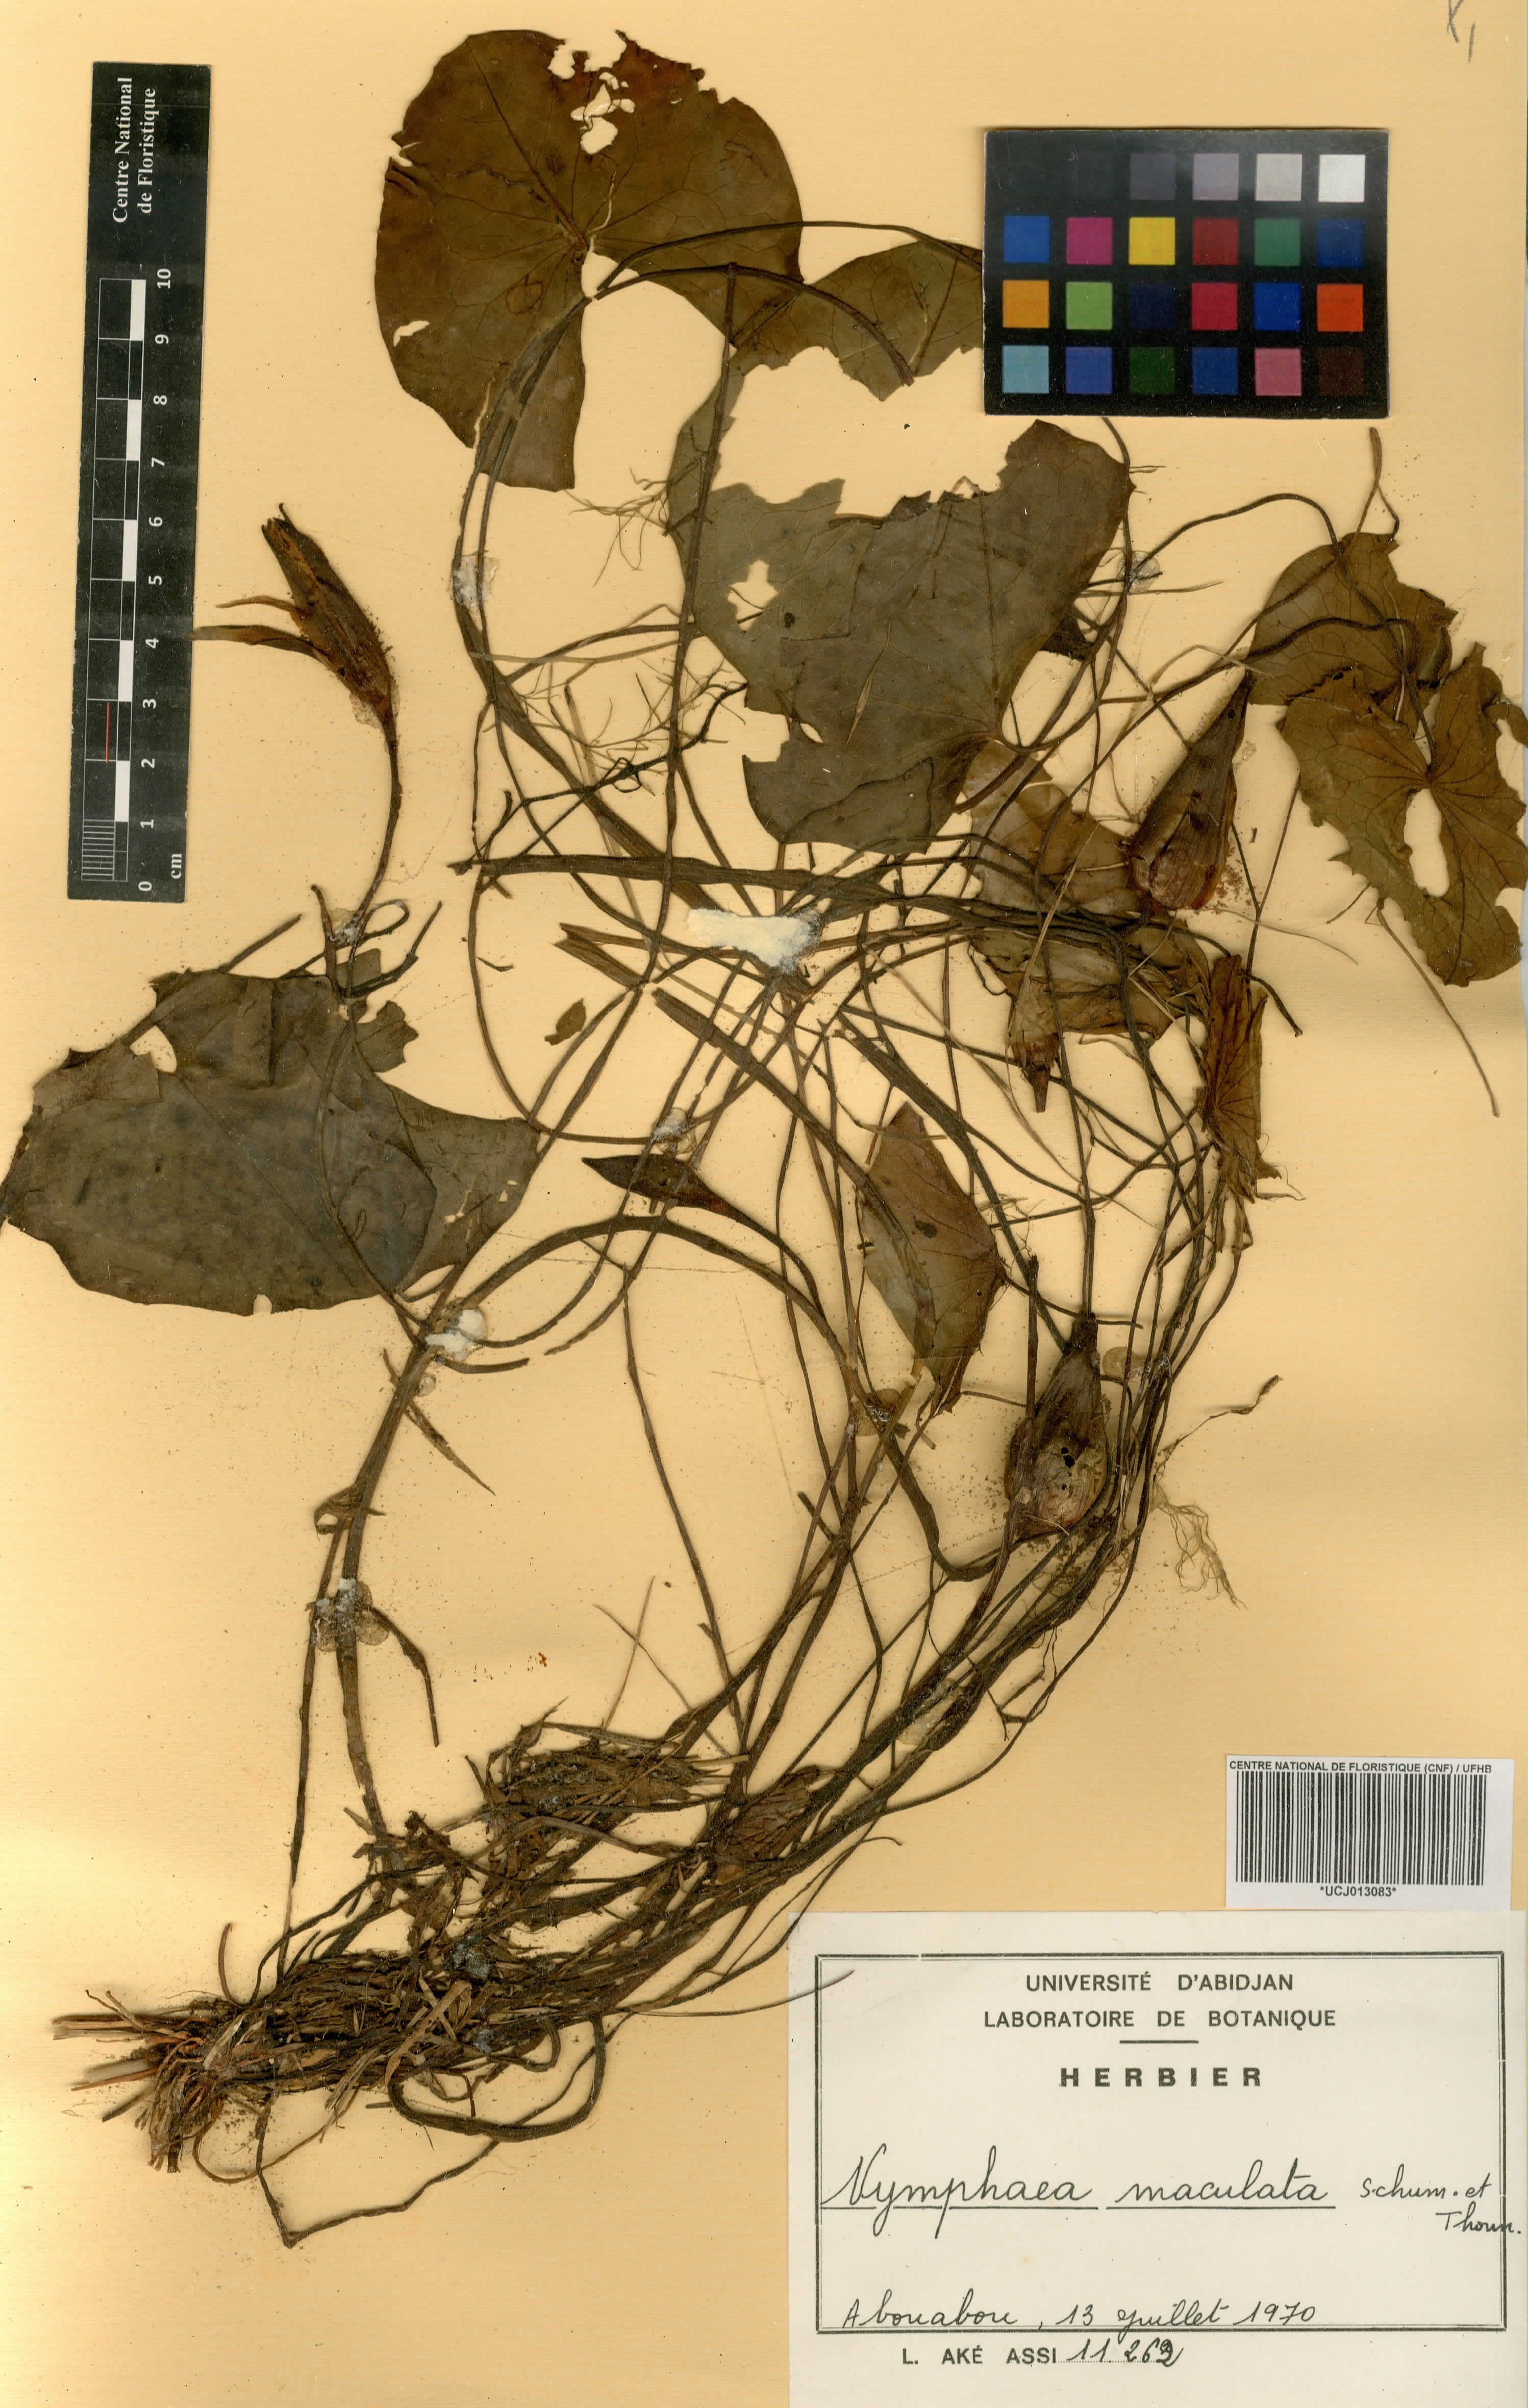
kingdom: Plantae
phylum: Tracheophyta
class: Magnoliopsida
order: Nymphaeales
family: Nymphaeaceae
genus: Nymphaea
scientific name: Nymphaea maculata
